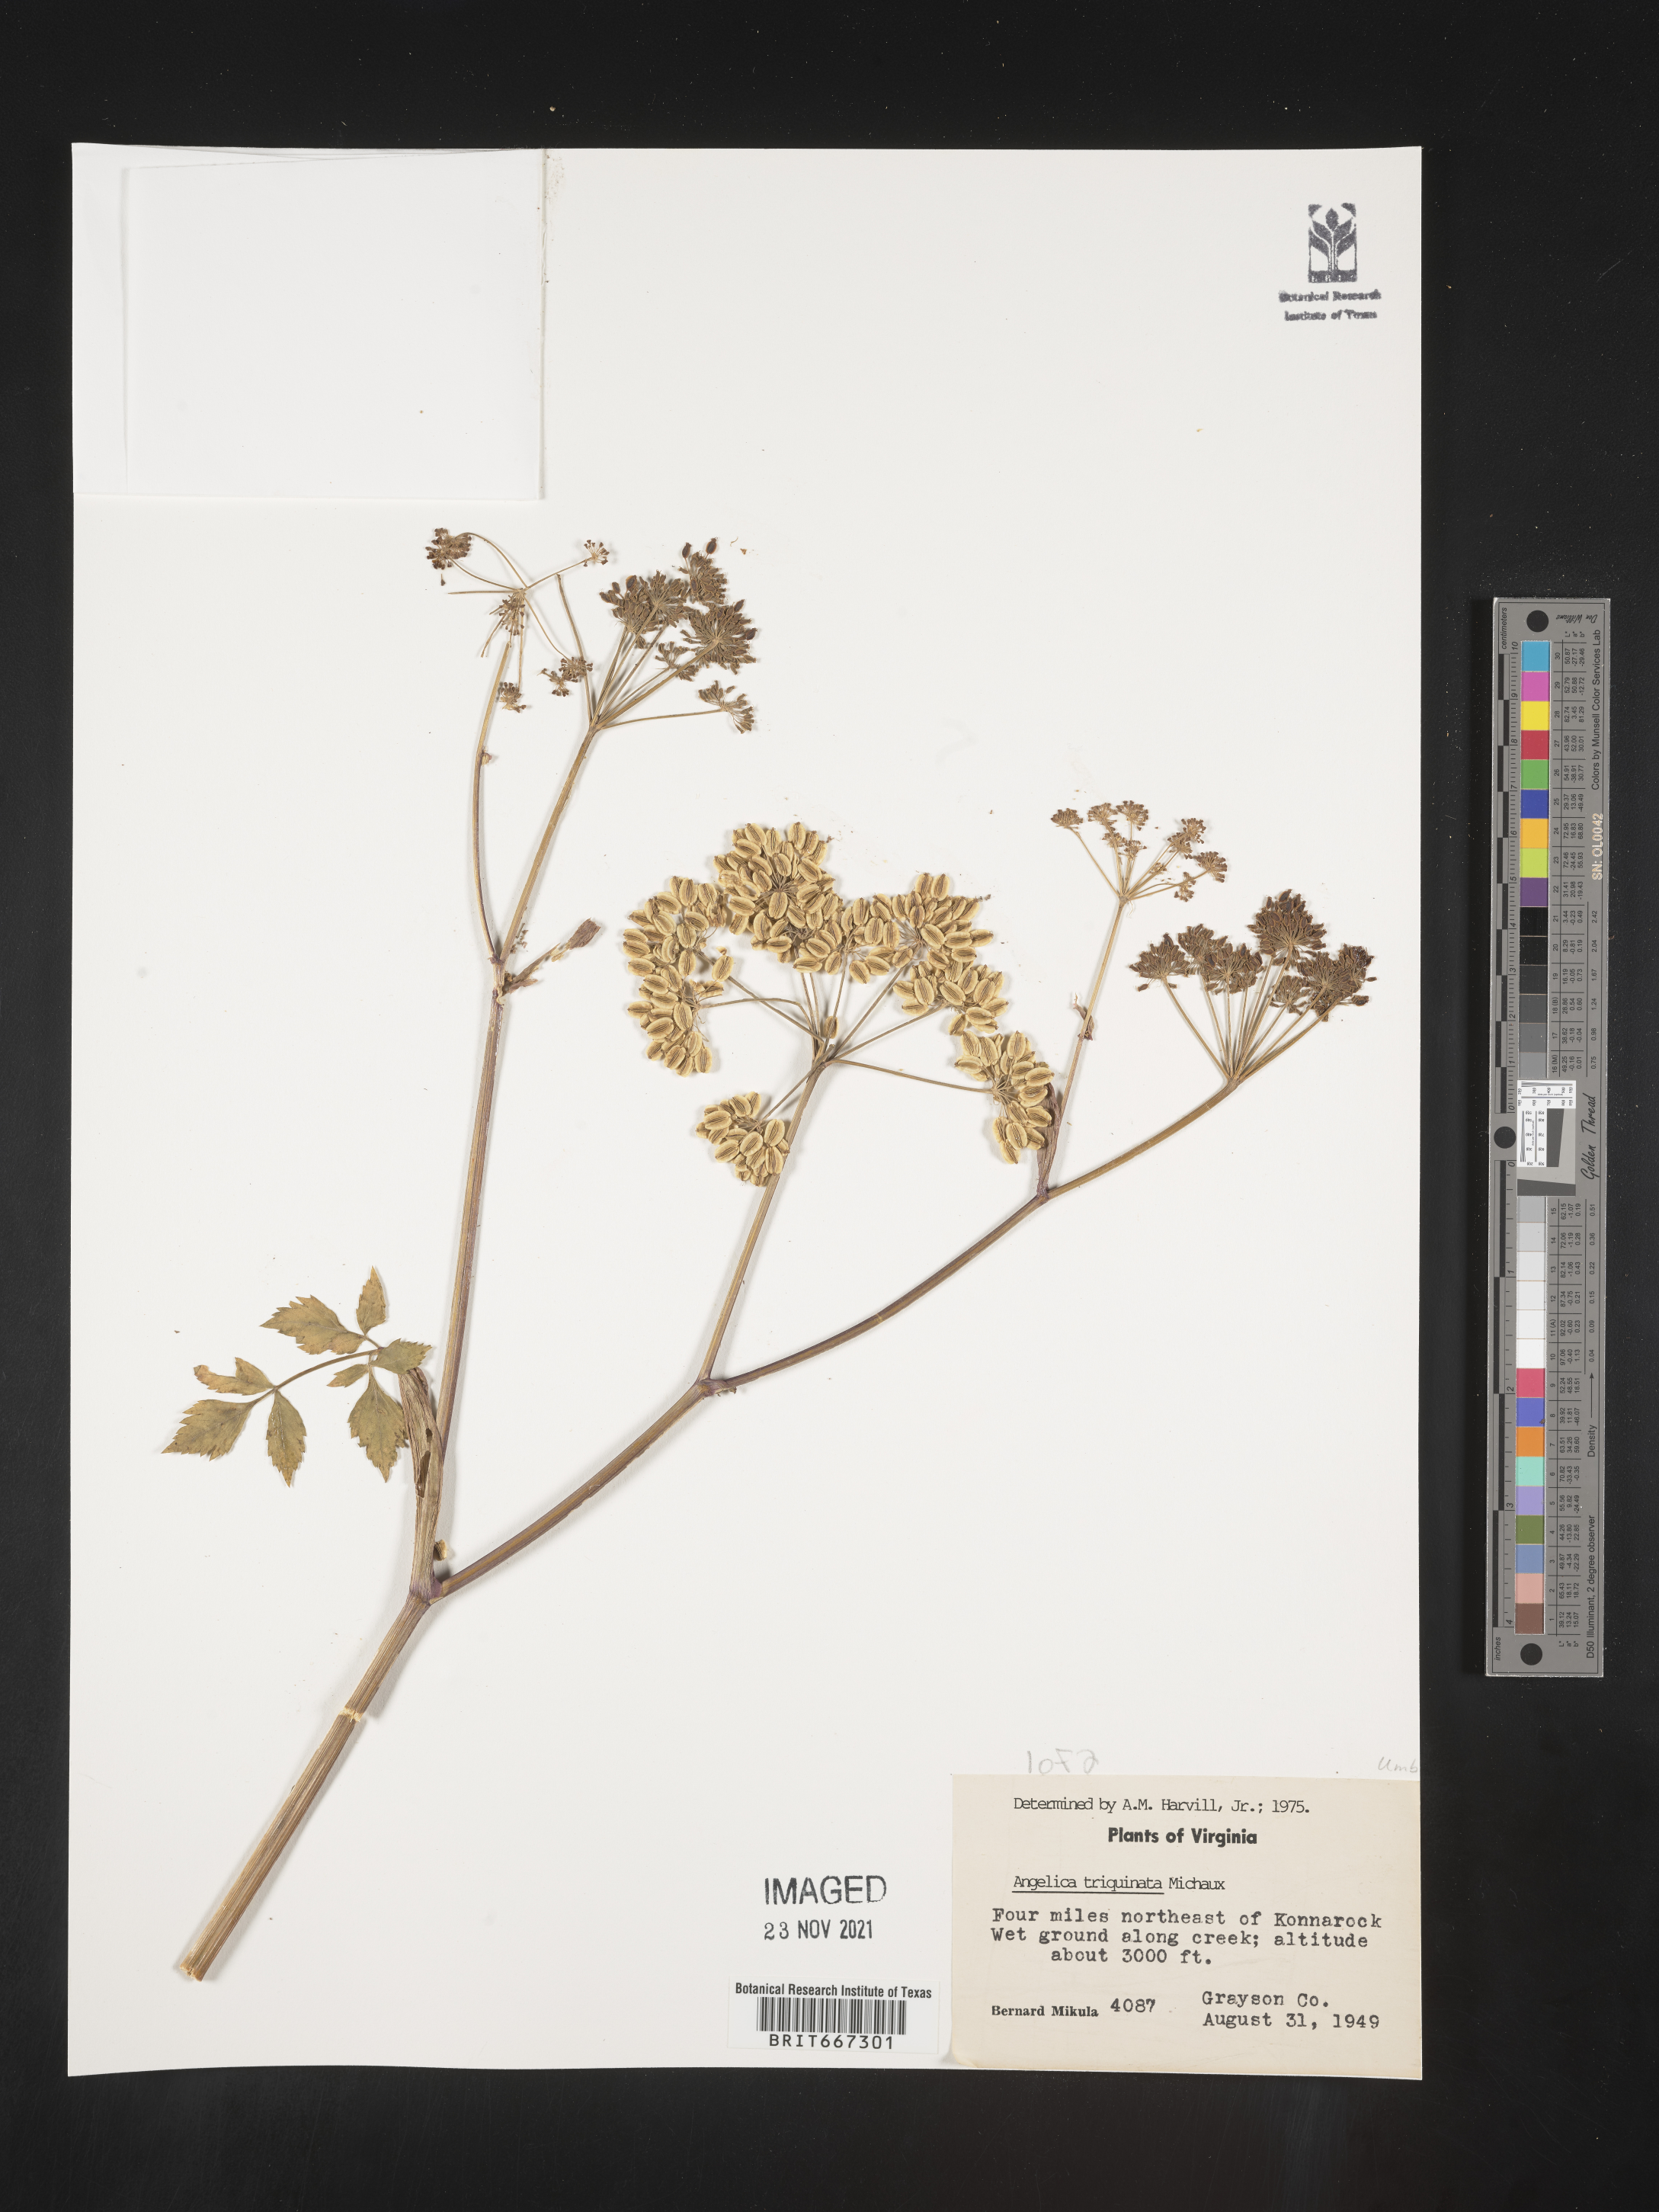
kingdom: Plantae
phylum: Tracheophyta
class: Magnoliopsida
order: Apiales
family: Apiaceae
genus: Angelica
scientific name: Angelica triquinata
